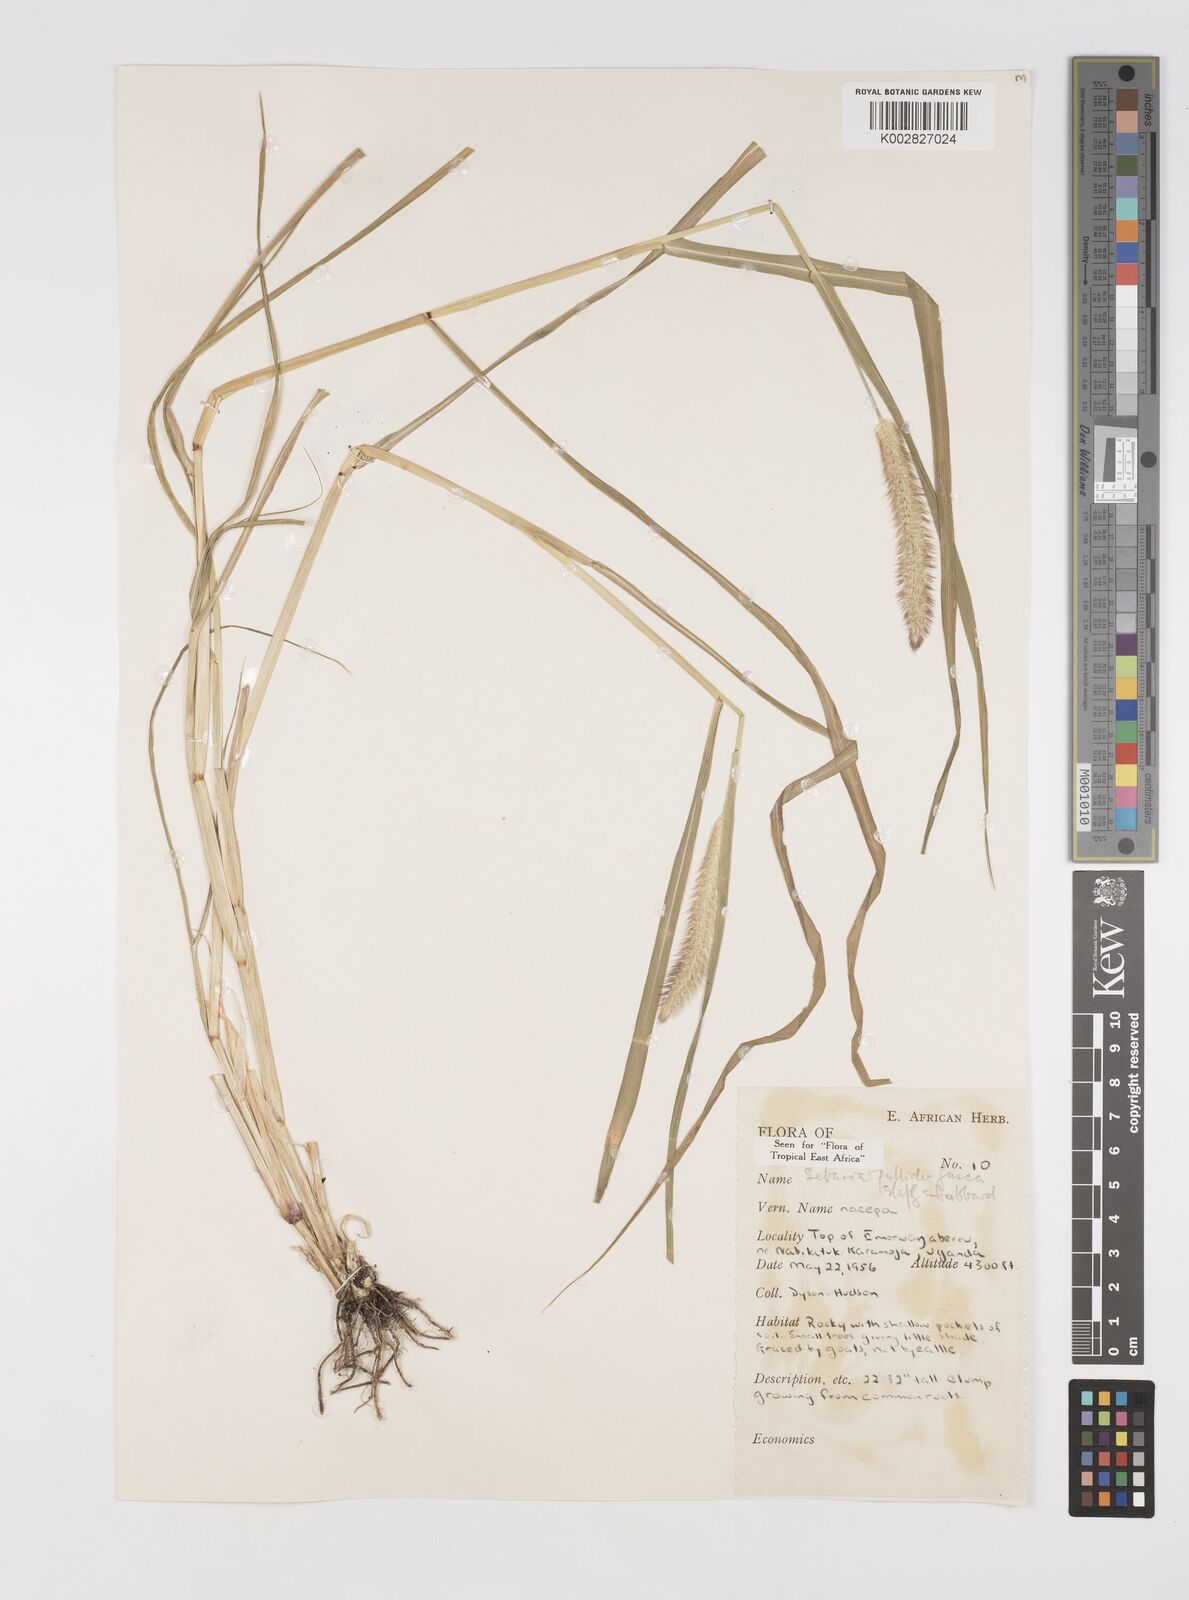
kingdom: Plantae
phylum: Tracheophyta
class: Liliopsida
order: Poales
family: Poaceae
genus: Setaria
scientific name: Setaria pumila
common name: Yellow bristle-grass
